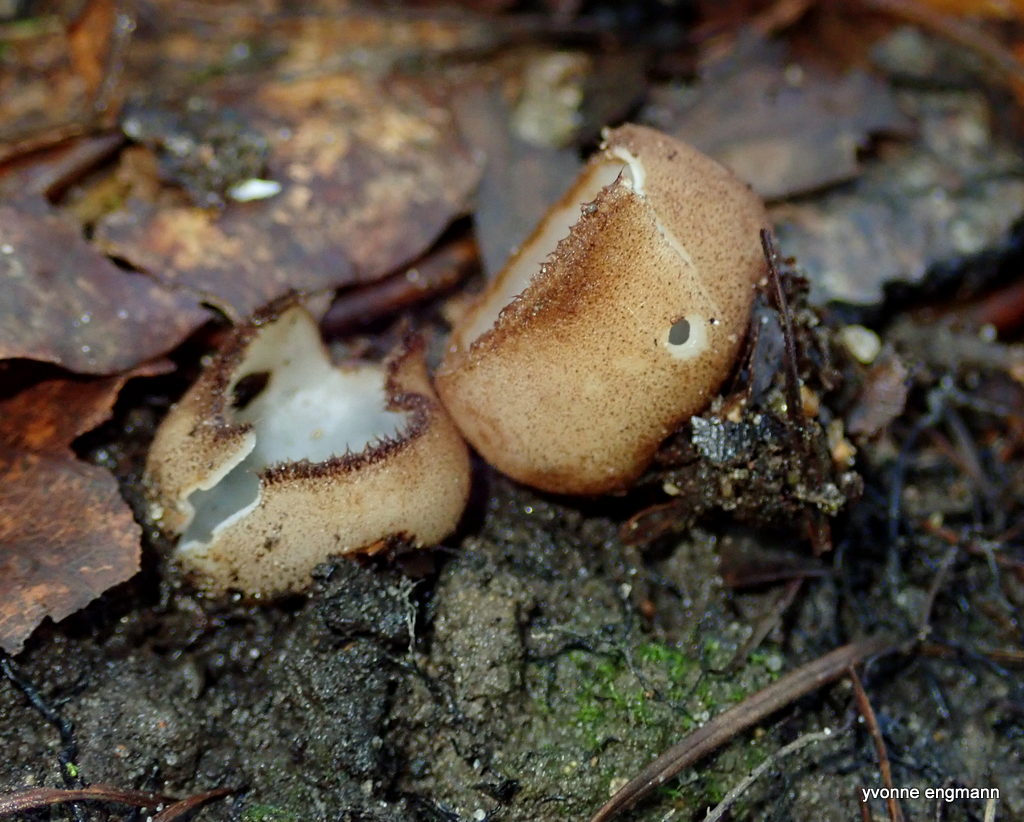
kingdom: Fungi
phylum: Ascomycota
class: Pezizomycetes
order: Pezizales
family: Pyronemataceae
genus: Humaria
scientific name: Humaria hemisphaerica
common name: halvkugleformet børstebæger
